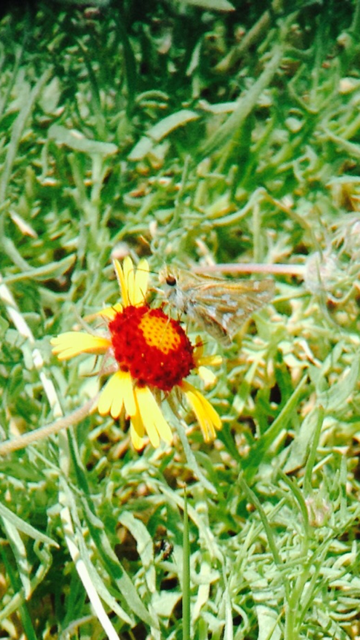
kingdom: Animalia
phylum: Arthropoda
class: Insecta
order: Lepidoptera
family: Hesperiidae
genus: Hesperia
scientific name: Hesperia viridis
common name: Green Skipper
